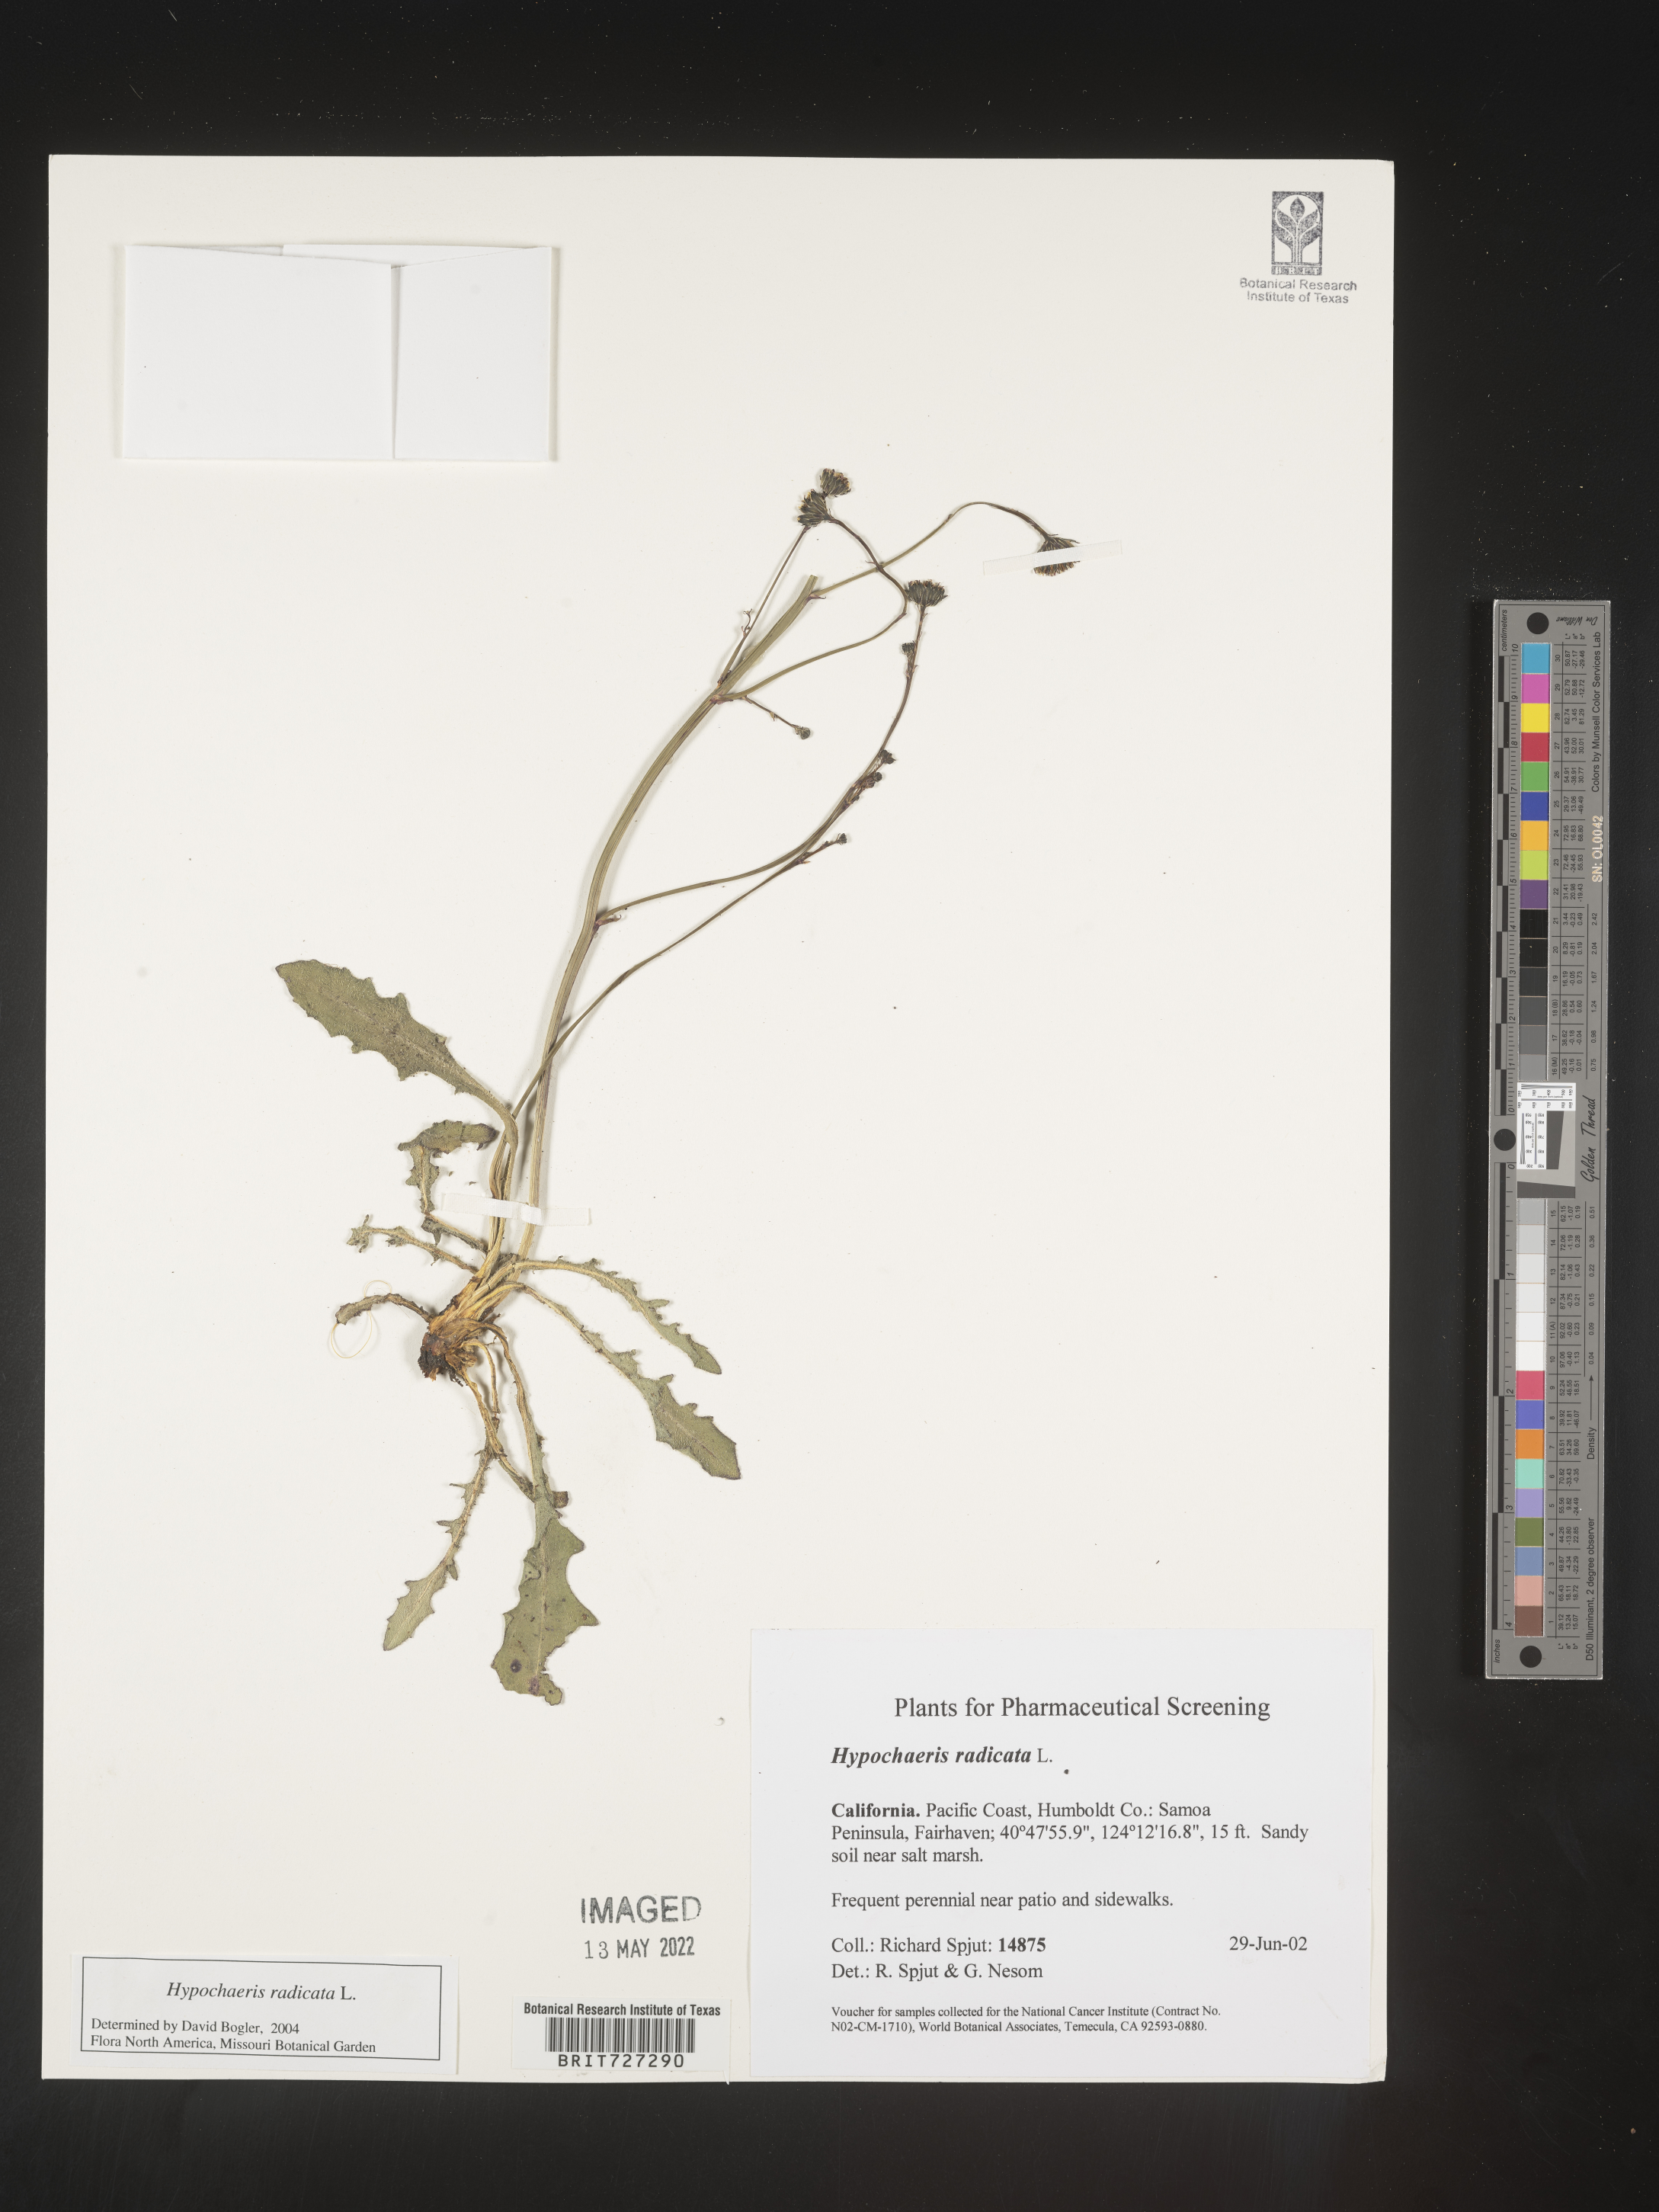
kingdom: Plantae
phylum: Tracheophyta
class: Magnoliopsida
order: Asterales
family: Asteraceae
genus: Hypochaeris
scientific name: Hypochaeris radicata
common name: Flatweed
